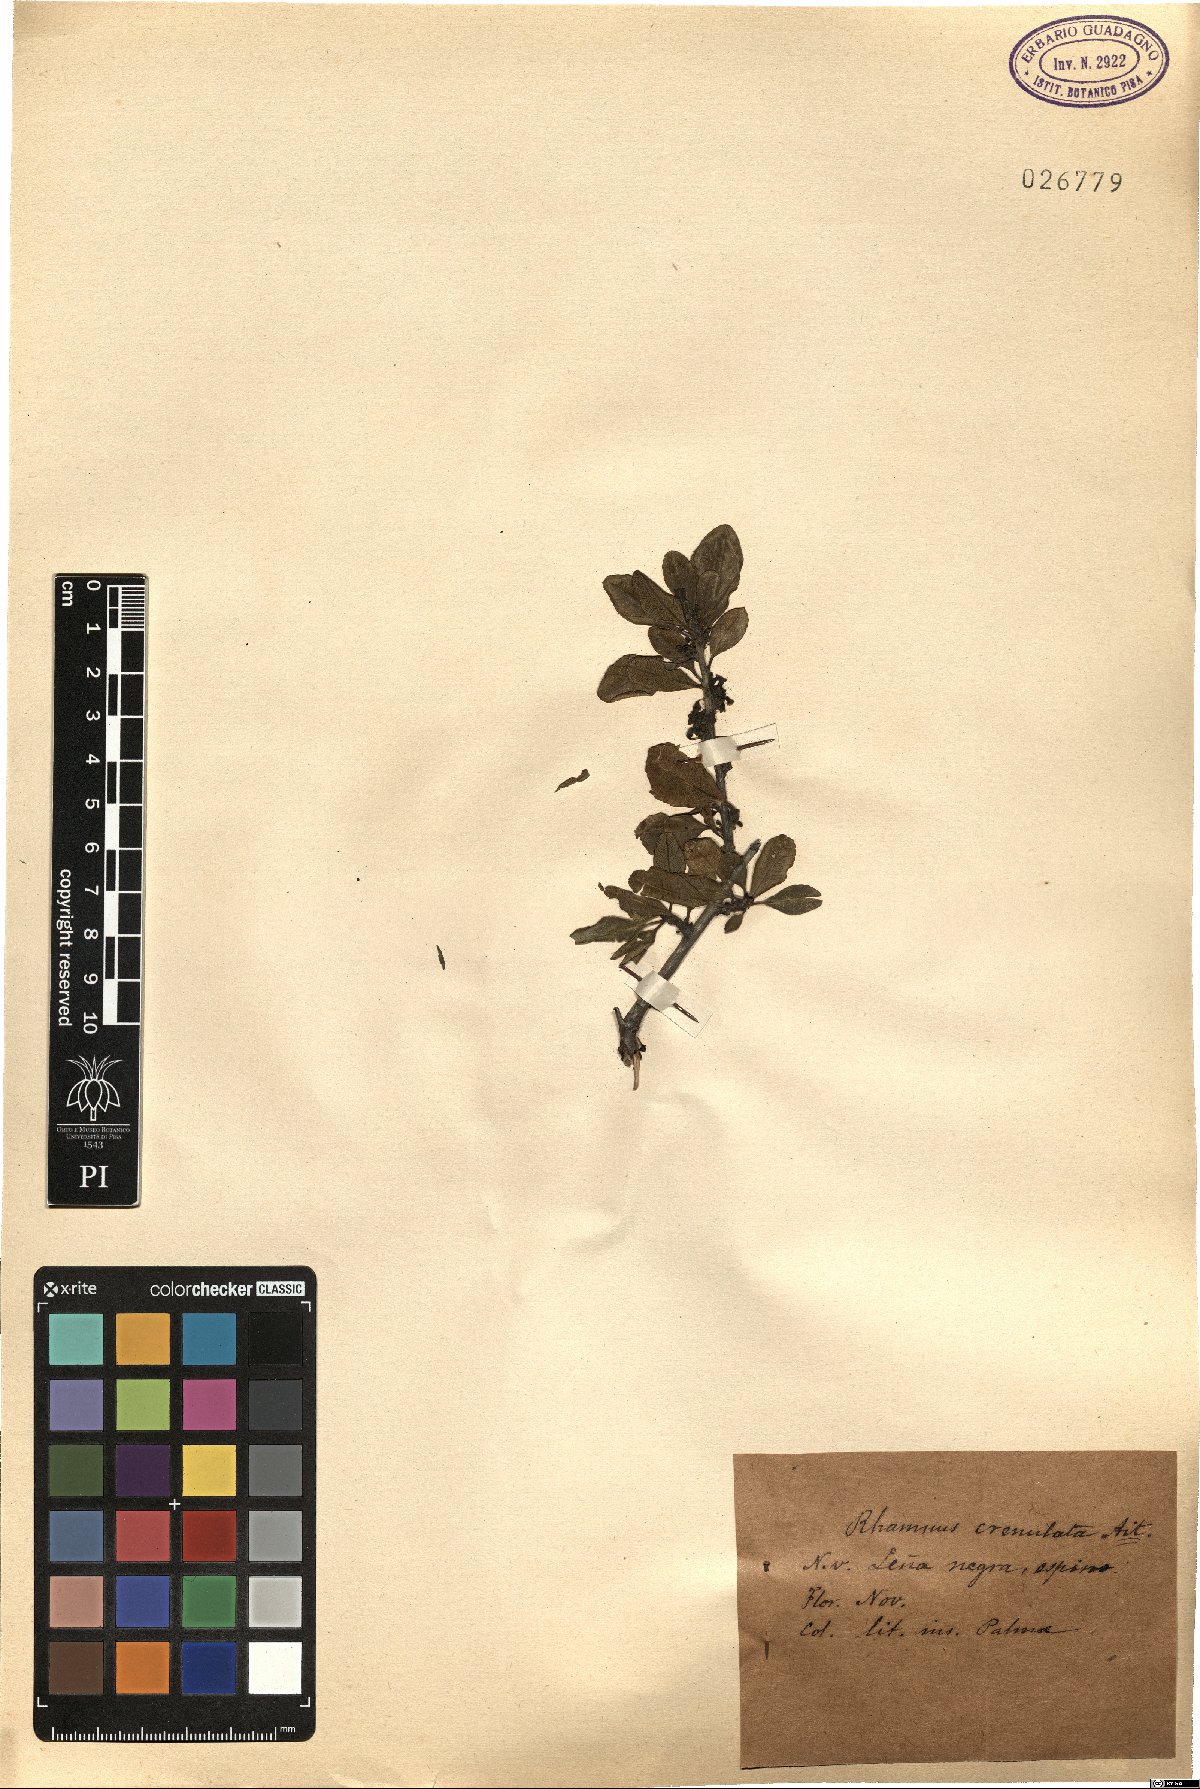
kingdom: Plantae
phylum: Tracheophyta
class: Magnoliopsida
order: Rosales
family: Rhamnaceae
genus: Rhamnus
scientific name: Rhamnus crenulata
